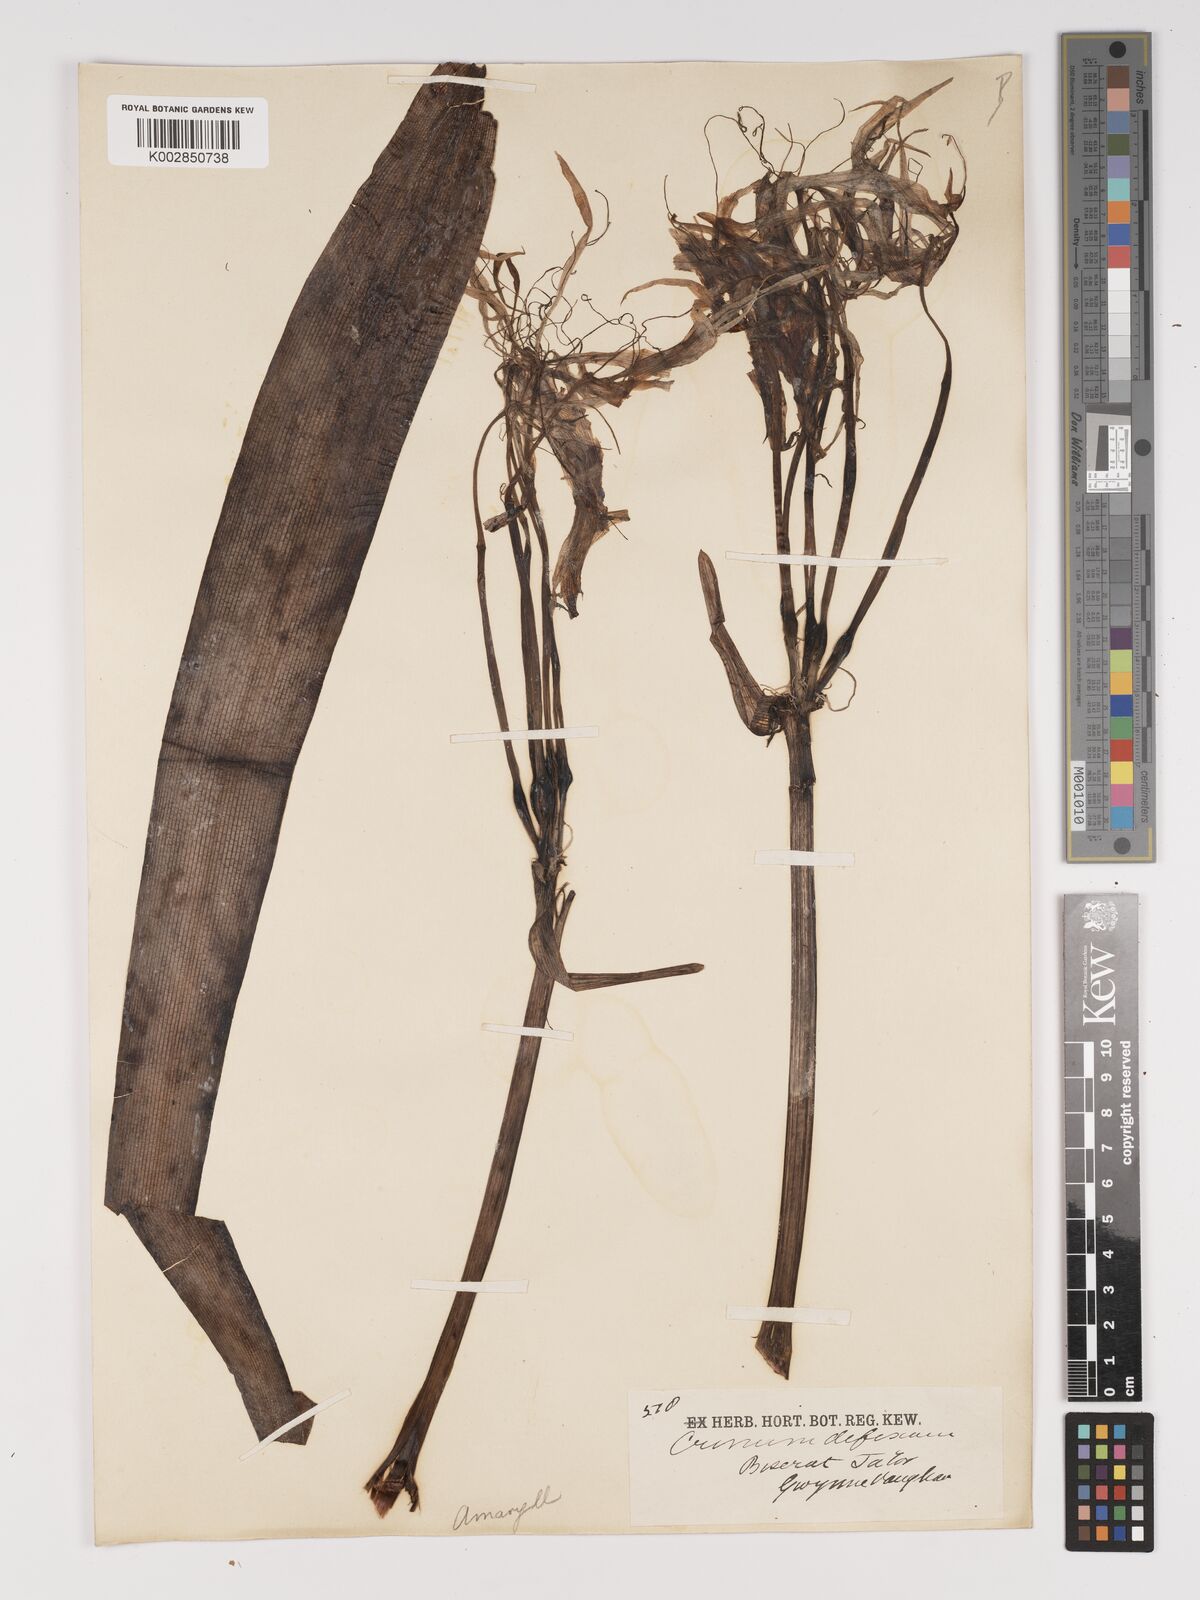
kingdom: Plantae
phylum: Tracheophyta
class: Liliopsida
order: Asparagales
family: Amaryllidaceae
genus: Crinum
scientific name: Crinum asiaticum
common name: Poisonbulb
